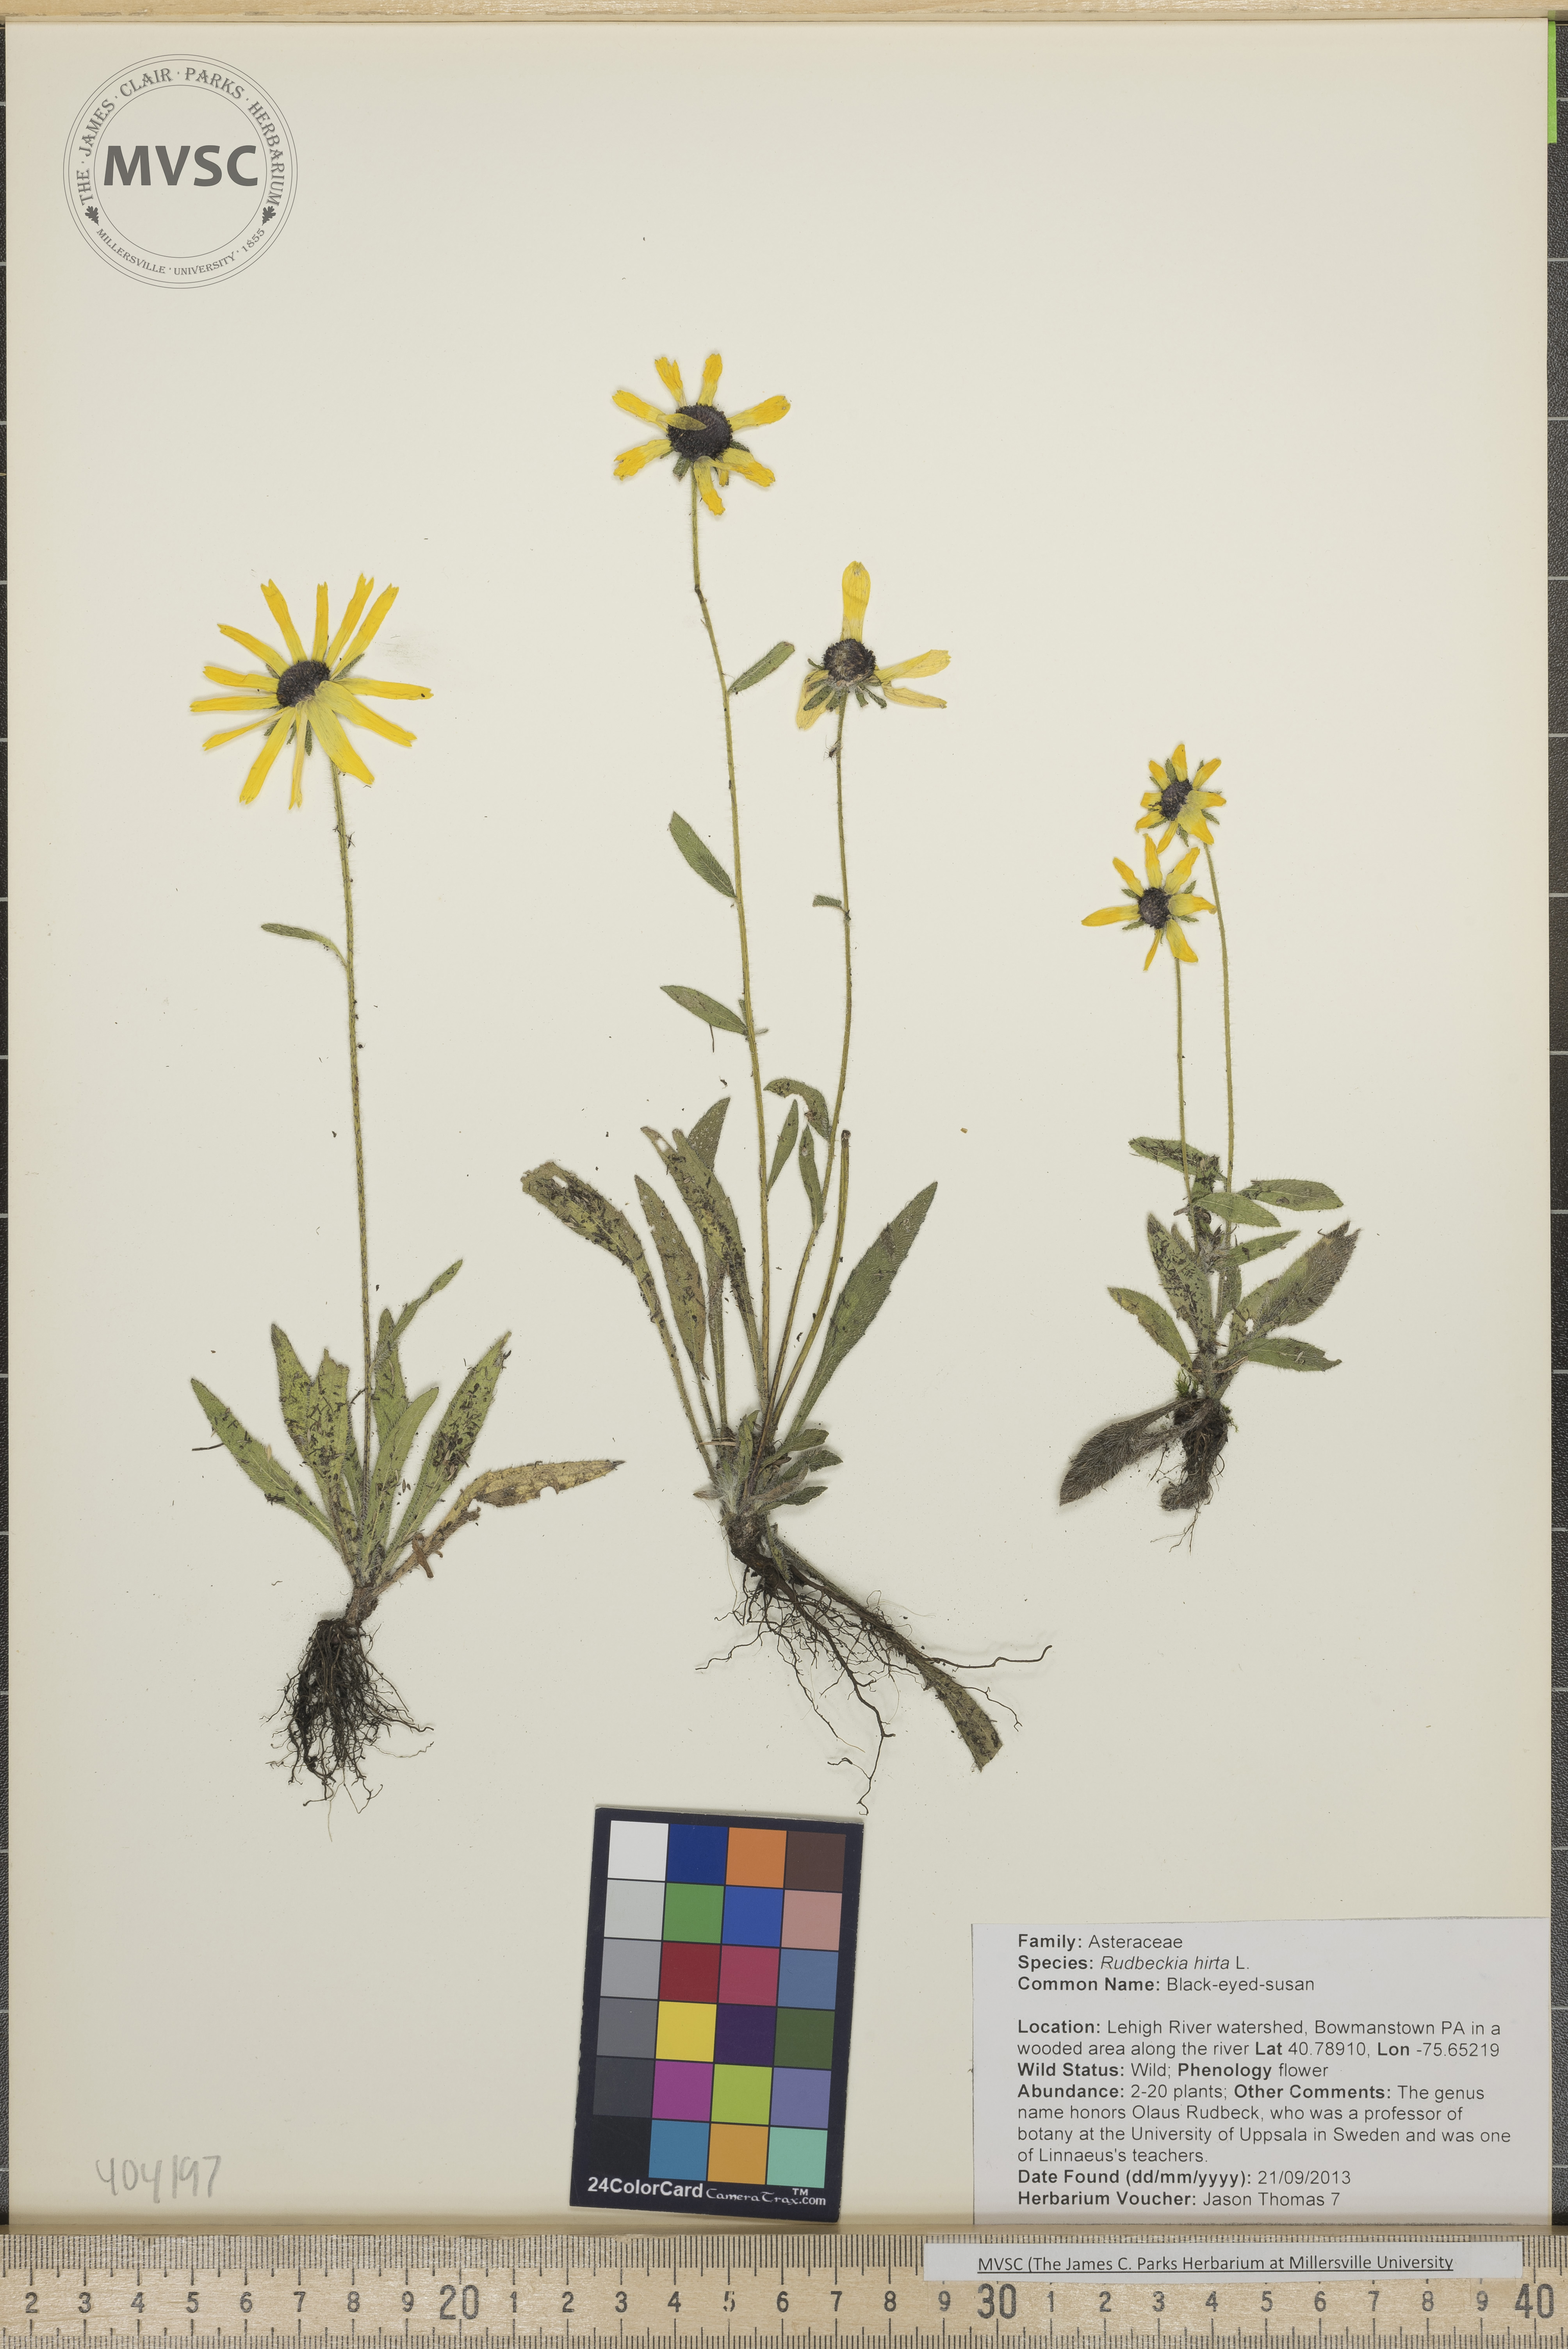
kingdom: Plantae
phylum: Tracheophyta
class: Magnoliopsida
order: Asterales
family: Asteraceae
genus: Rudbeckia
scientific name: Rudbeckia hirta
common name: Black-eyed-Susan
